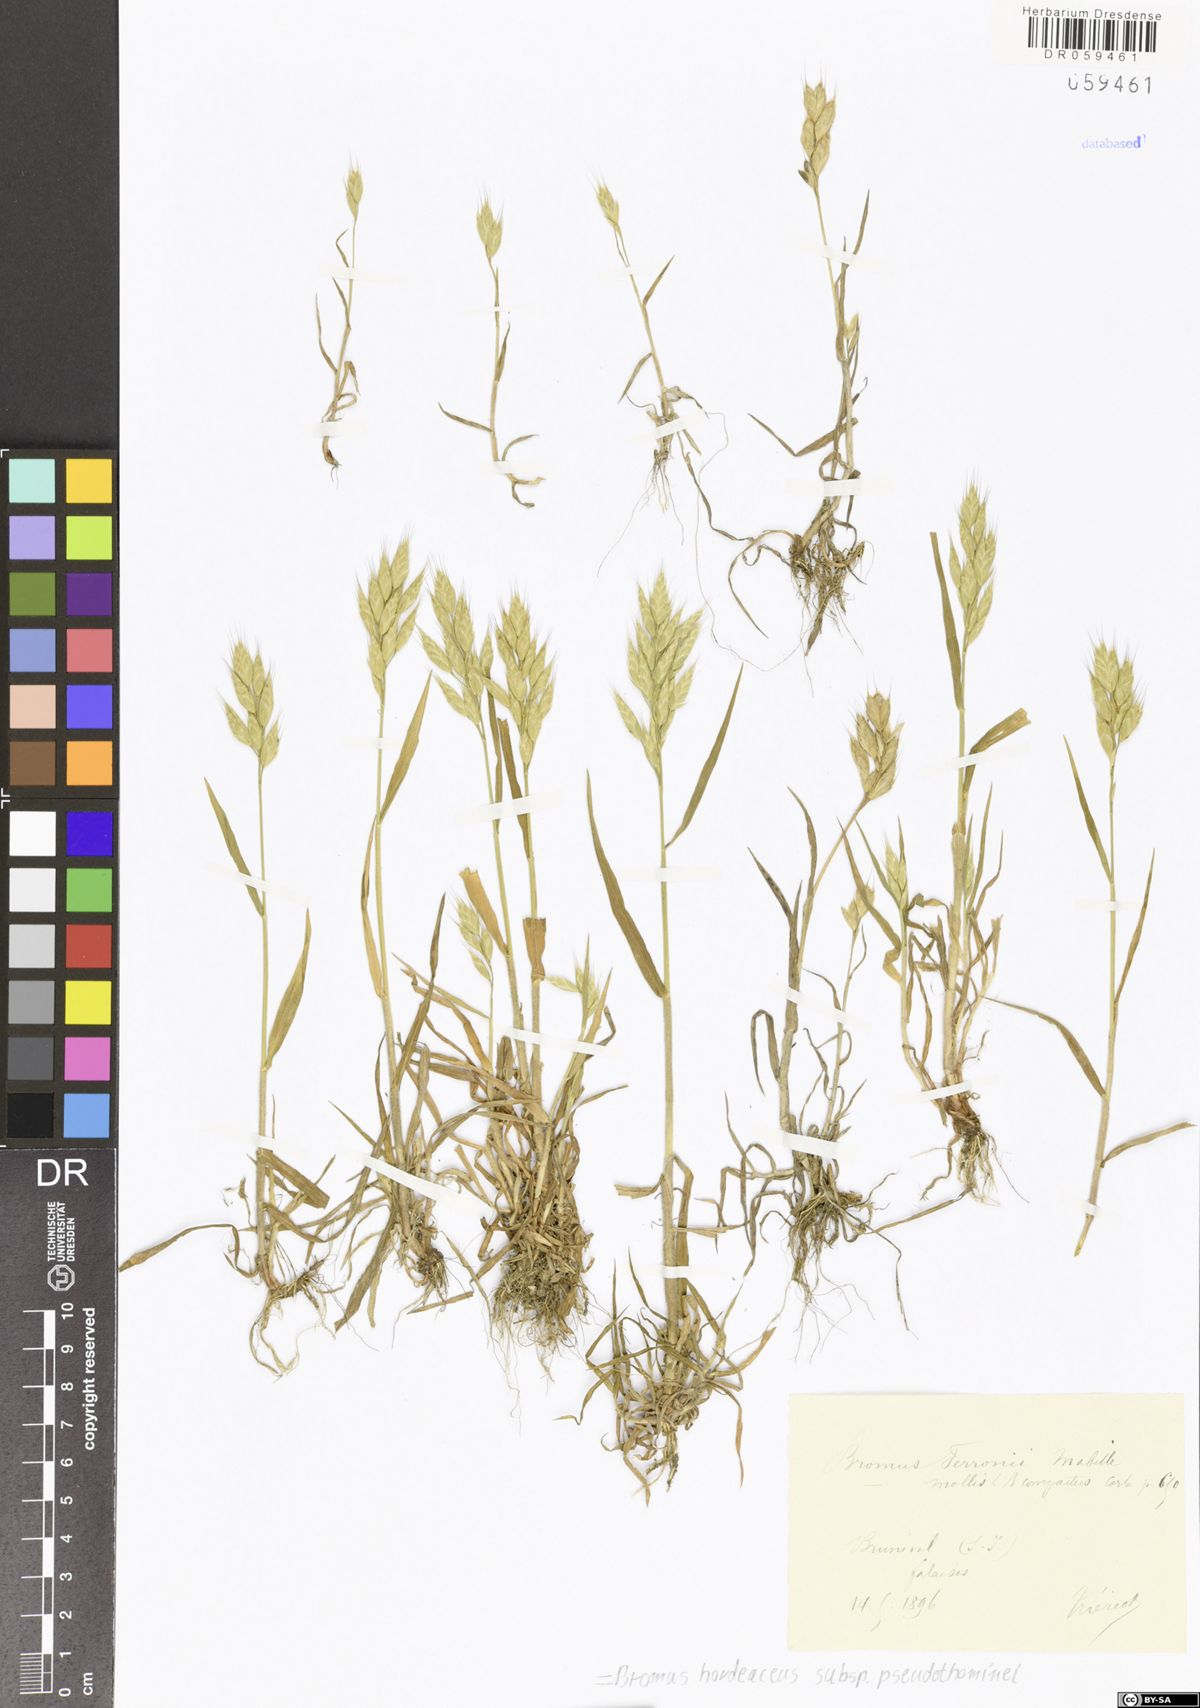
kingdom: Plantae
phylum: Tracheophyta
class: Liliopsida
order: Poales
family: Poaceae
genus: Bromus
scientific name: Bromus ferronii
